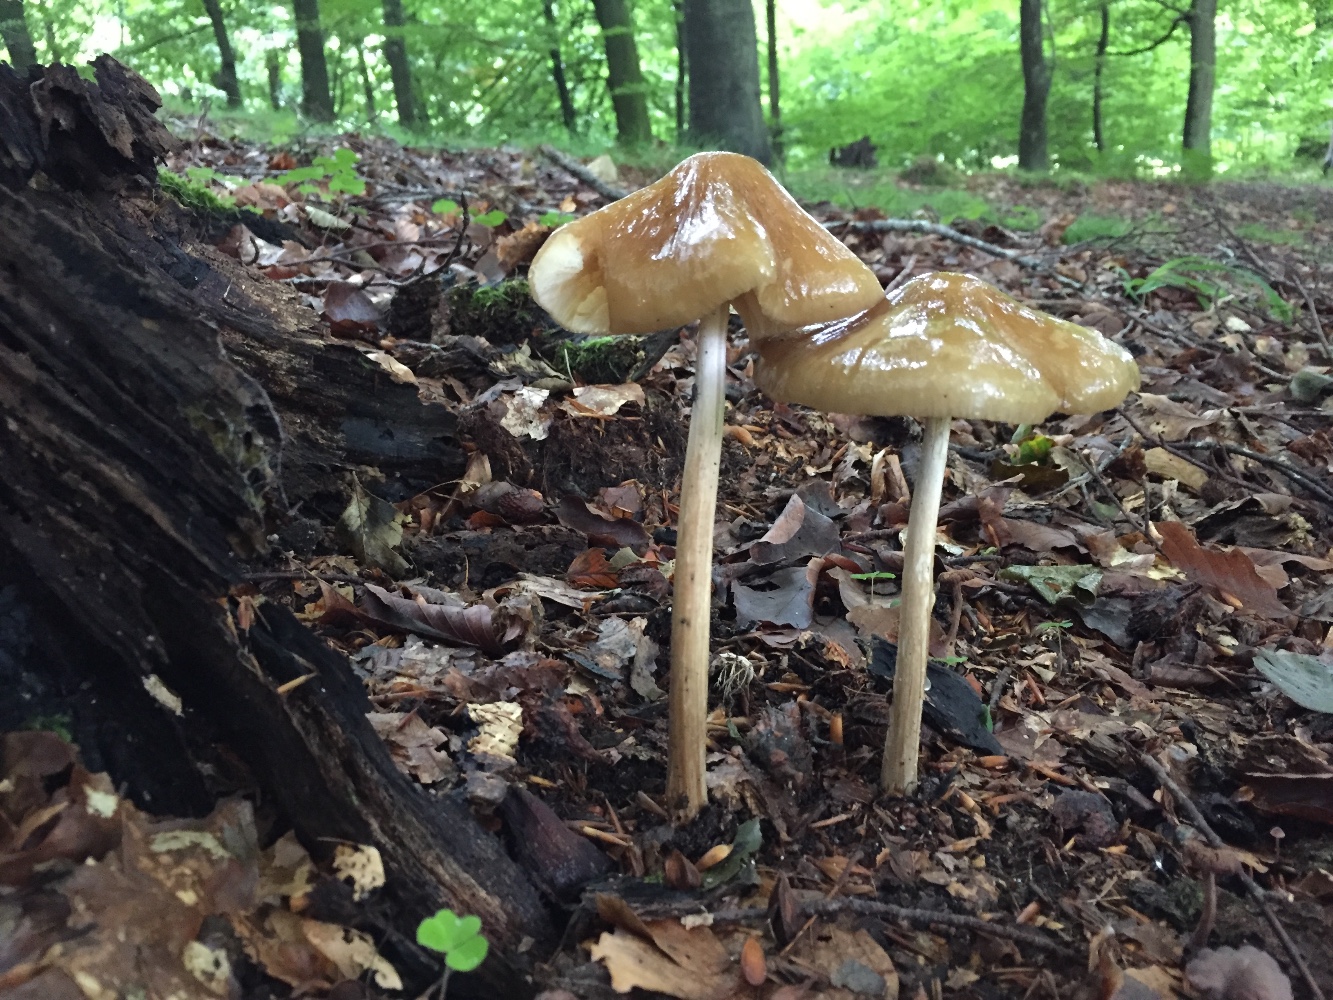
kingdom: Fungi
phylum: Basidiomycota
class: Agaricomycetes
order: Agaricales
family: Physalacriaceae
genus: Hymenopellis
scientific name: Hymenopellis radicata
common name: almindelig pælerodshat
